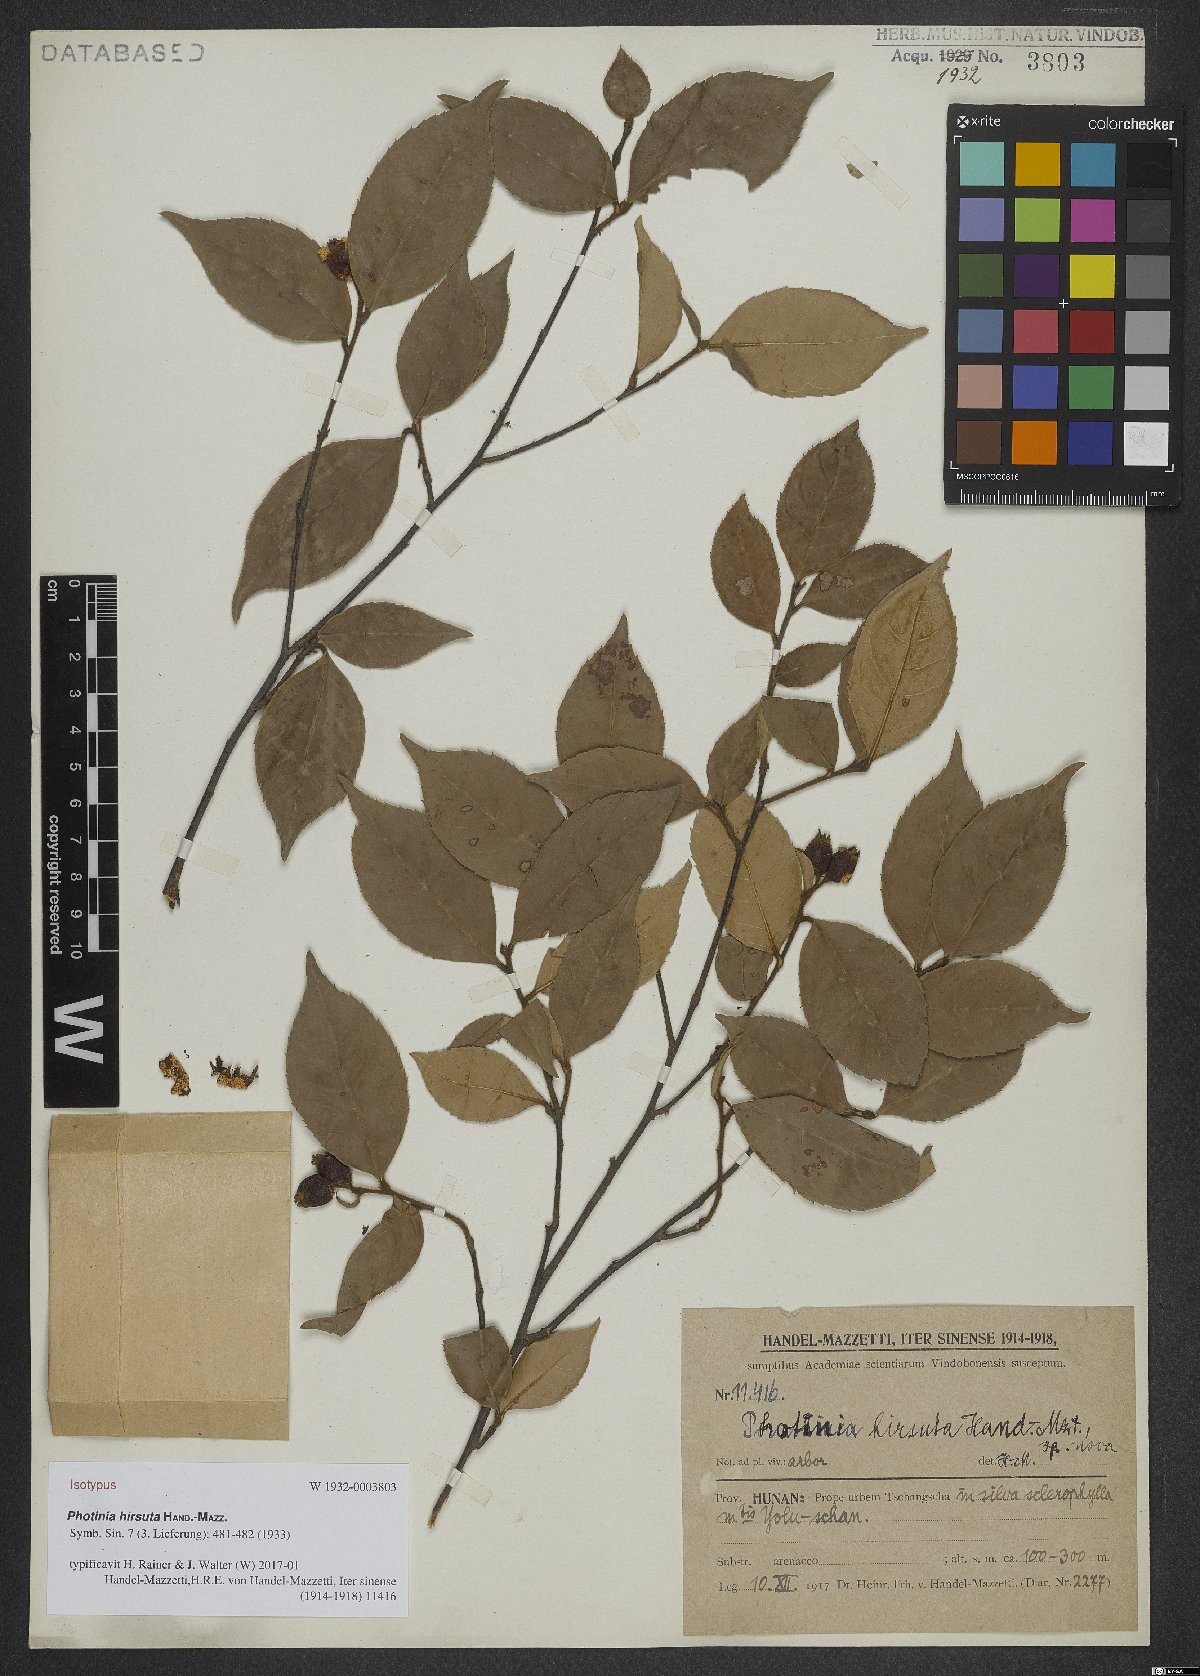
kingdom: Plantae
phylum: Tracheophyta
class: Magnoliopsida
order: Rosales
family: Rosaceae
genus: Photinia
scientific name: Photinia hirsuta
